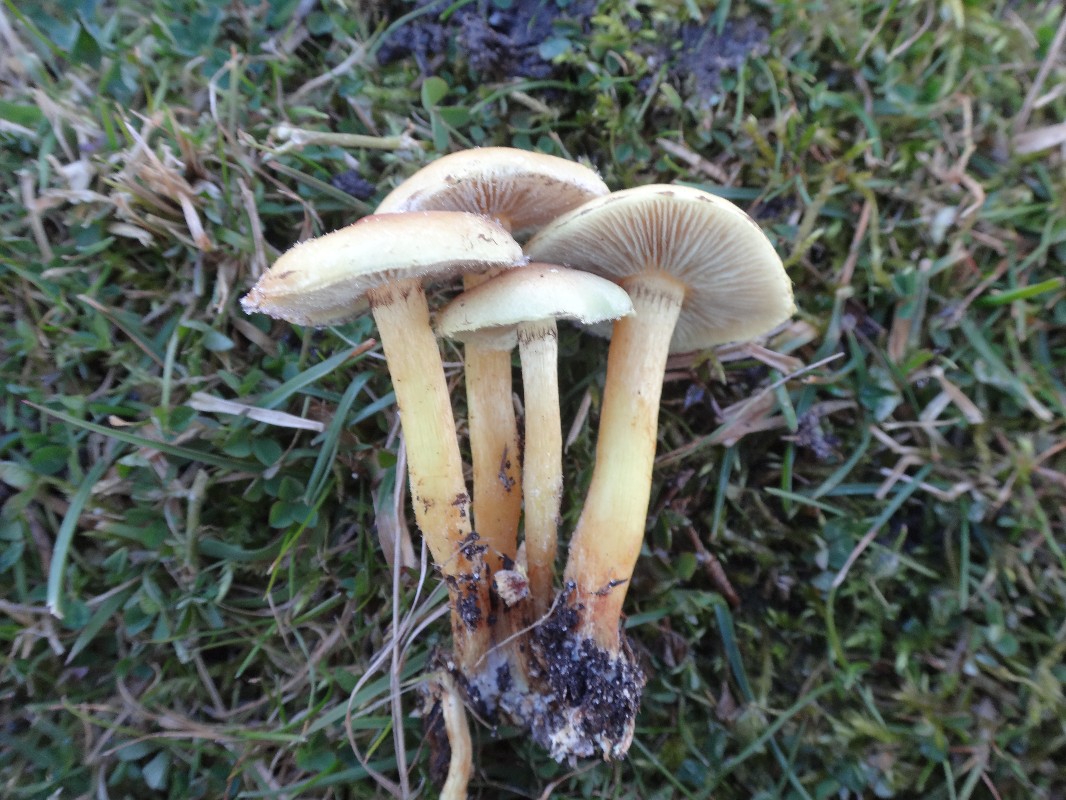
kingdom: Fungi
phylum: Basidiomycota
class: Agaricomycetes
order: Agaricales
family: Strophariaceae
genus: Hypholoma
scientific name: Hypholoma fasciculare
